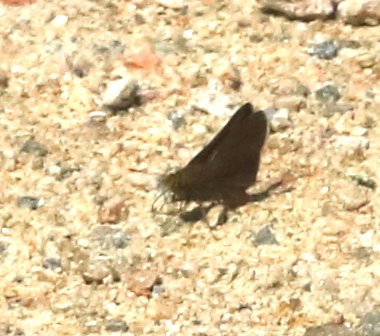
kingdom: Animalia
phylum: Arthropoda
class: Insecta
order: Lepidoptera
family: Hesperiidae
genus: Euphyes
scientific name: Euphyes vestris
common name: Dun Skipper
